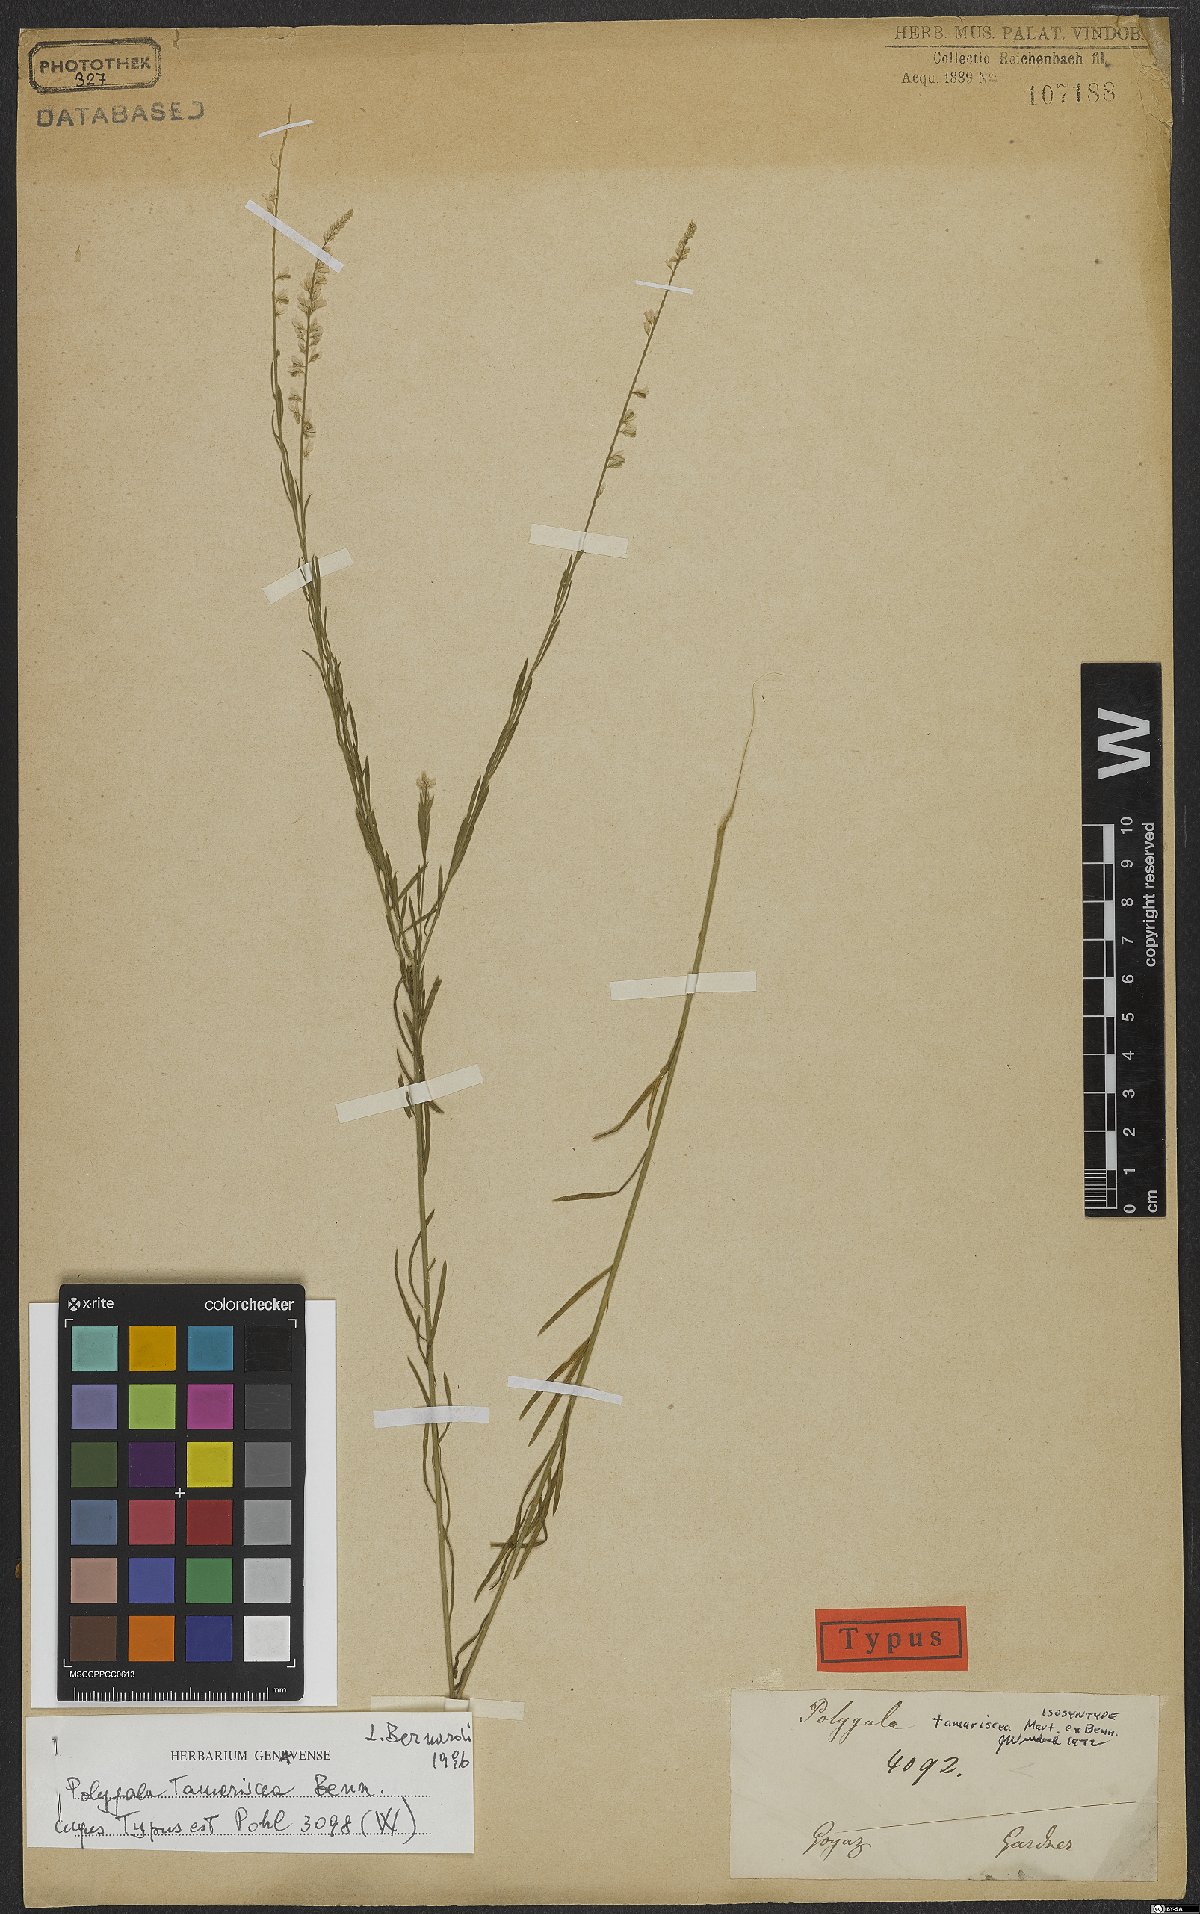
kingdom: Plantae
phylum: Tracheophyta
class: Magnoliopsida
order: Fabales
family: Polygalaceae
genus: Polygala
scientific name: Polygala tamariscea
